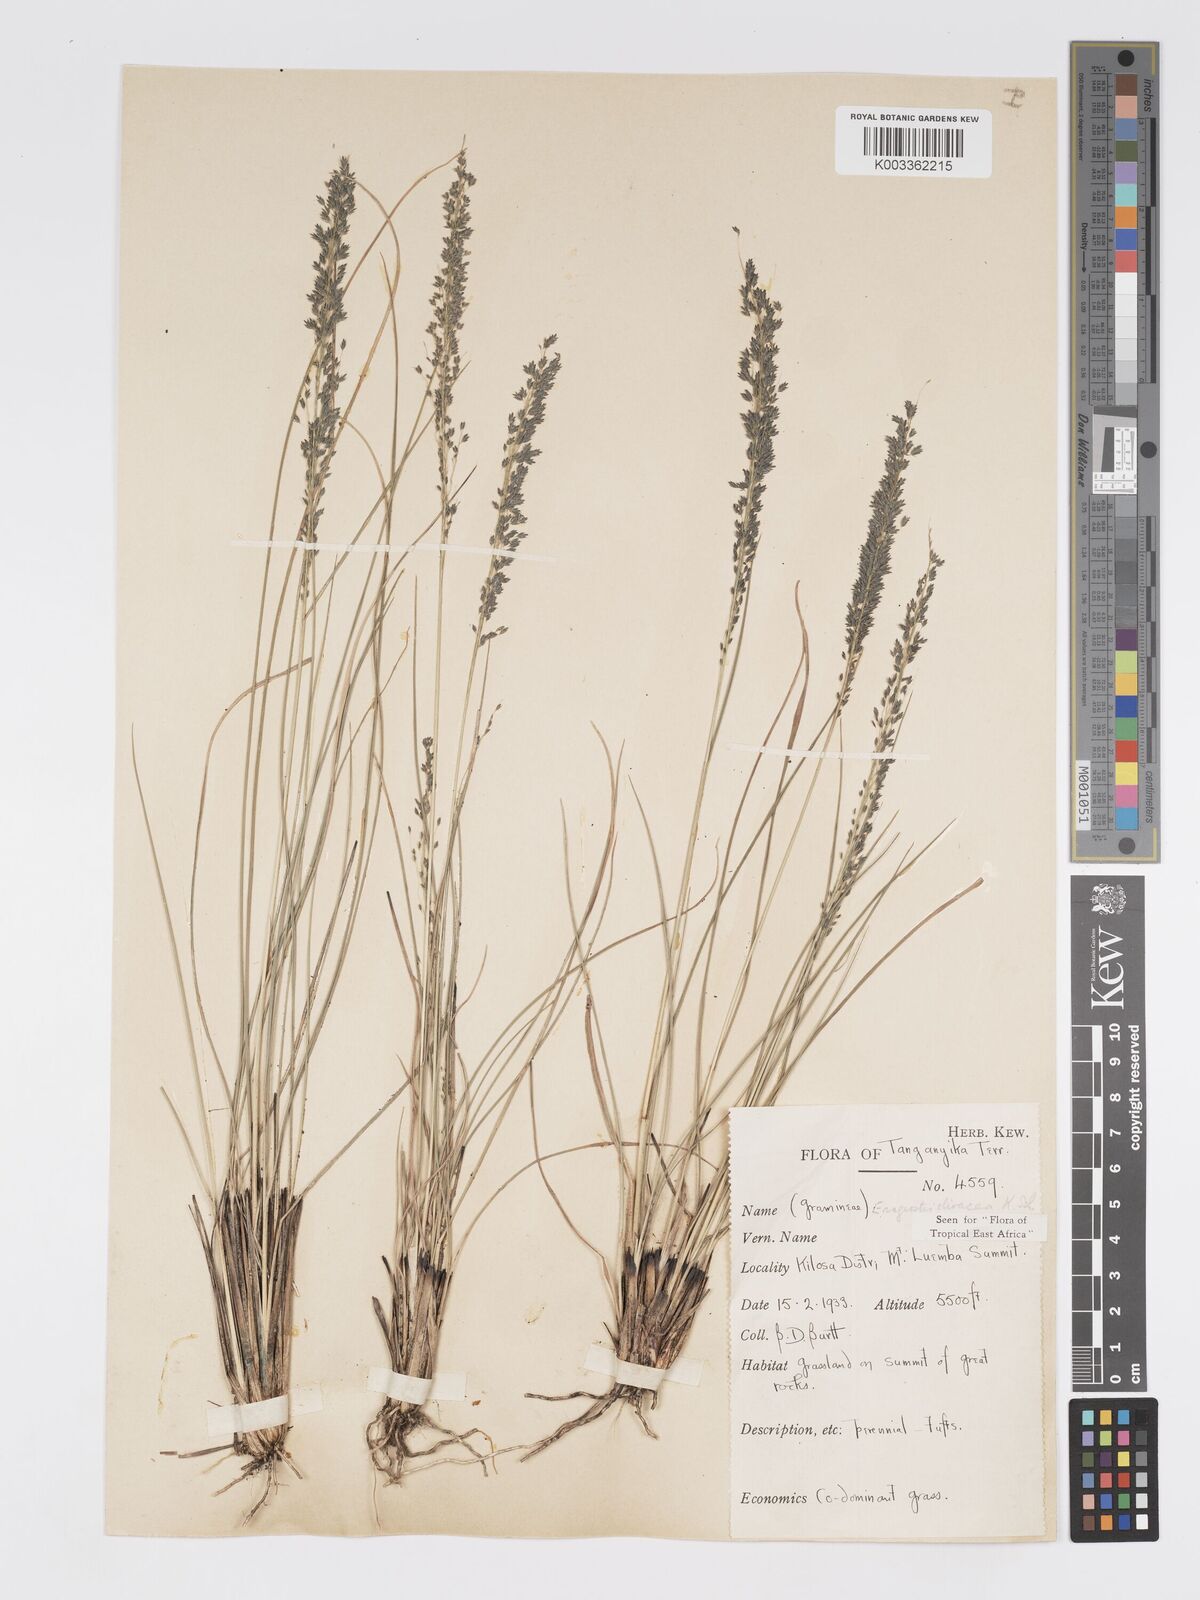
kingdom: Plantae
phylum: Tracheophyta
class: Liliopsida
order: Poales
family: Poaceae
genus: Eragrostis
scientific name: Eragrostis olivacea
